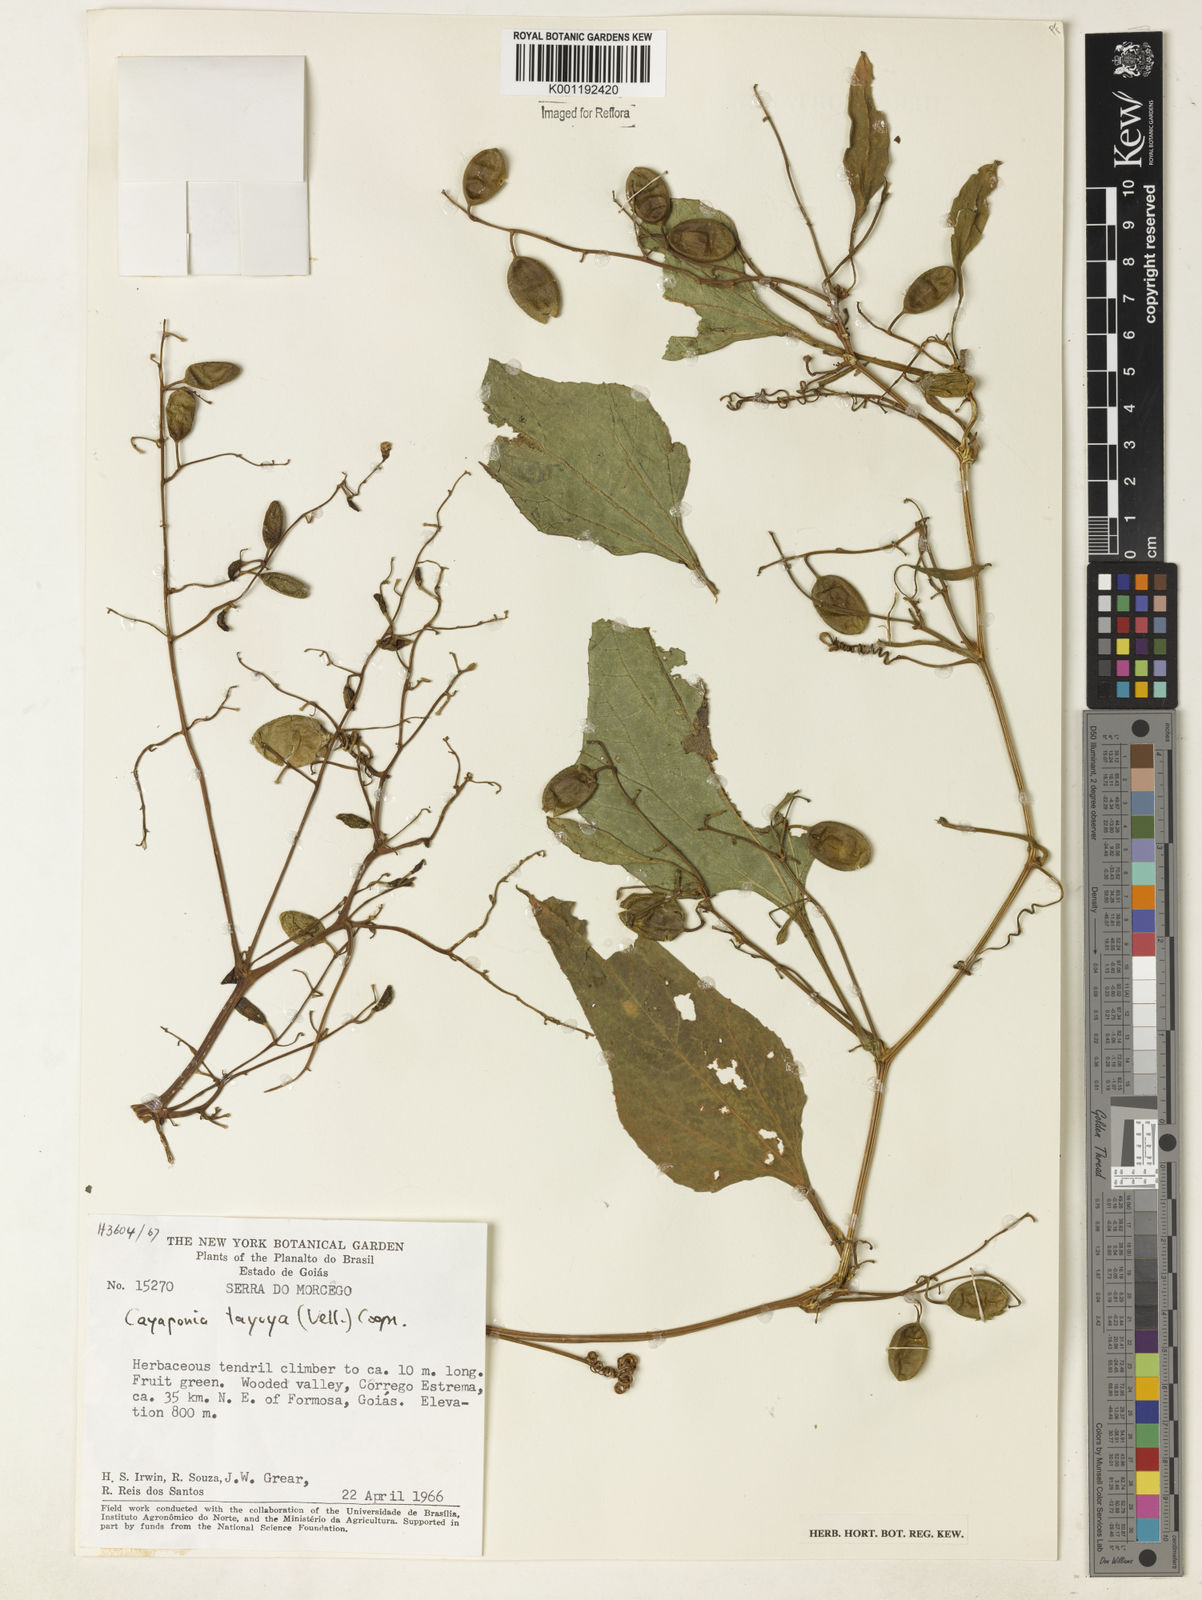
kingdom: Plantae
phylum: Tracheophyta
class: Magnoliopsida
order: Cucurbitales
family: Cucurbitaceae
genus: Cayaponia
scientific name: Cayaponia tayuya
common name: Tayuya
